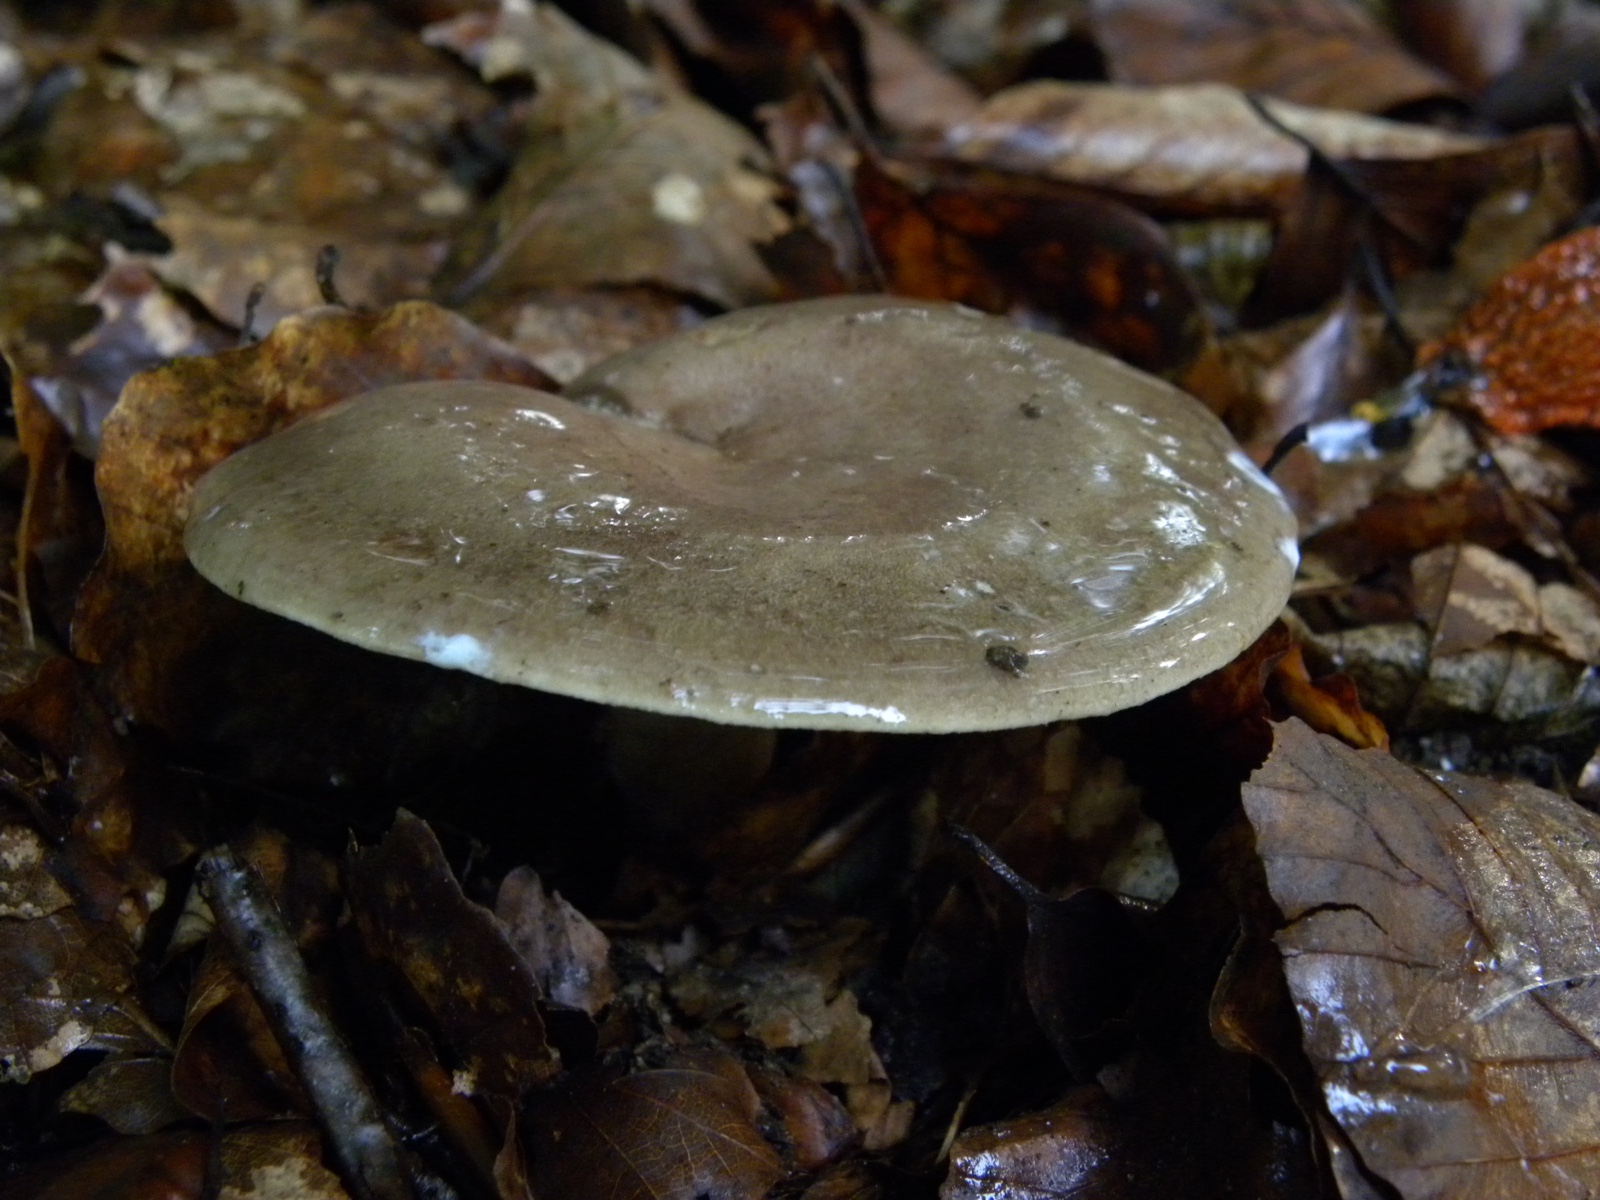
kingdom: Fungi
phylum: Basidiomycota
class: Agaricomycetes
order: Russulales
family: Russulaceae
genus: Lactarius
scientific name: Lactarius blennius
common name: dråbeplettet mælkehat
